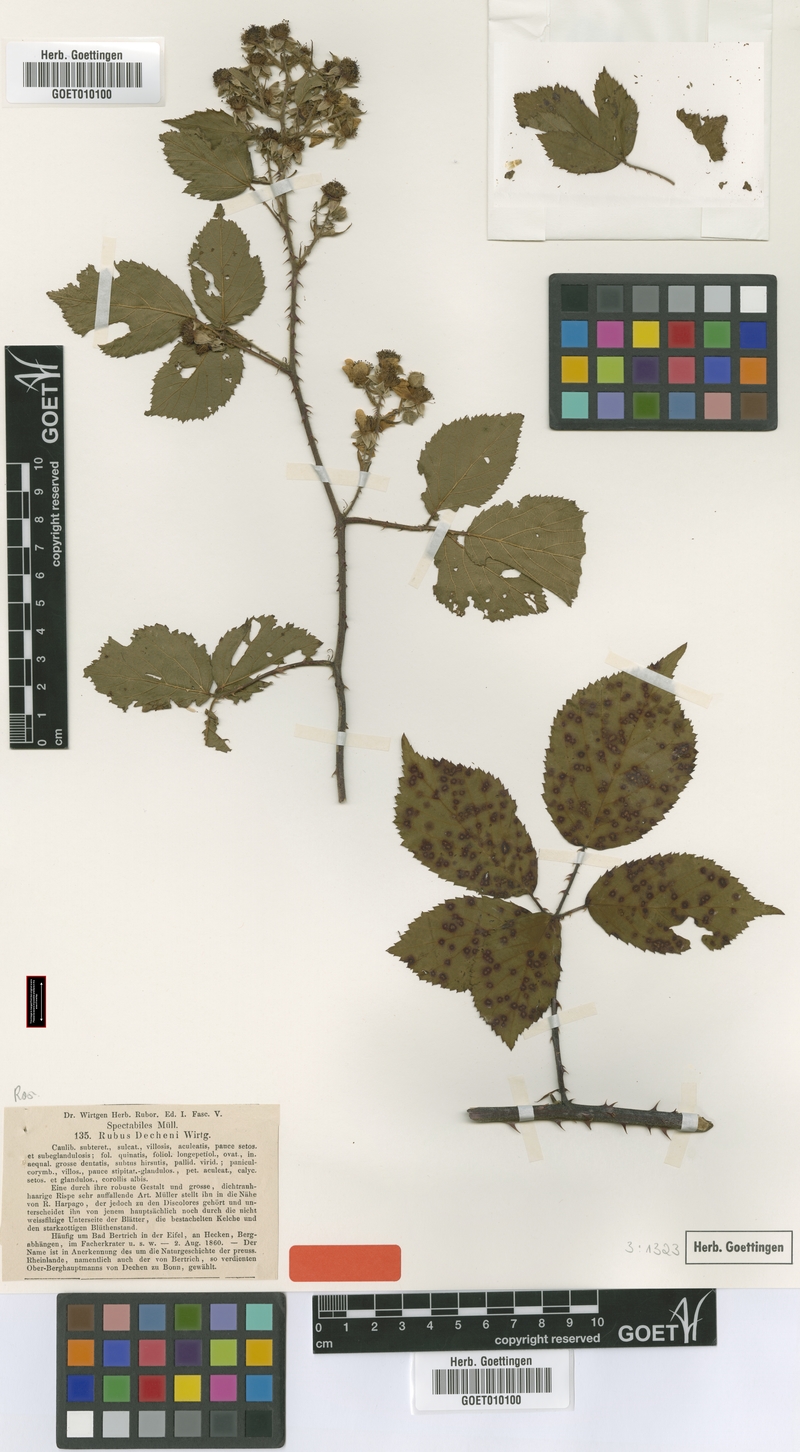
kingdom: Plantae
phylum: Tracheophyta
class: Magnoliopsida
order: Rosales
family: Rosaceae
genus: Rubus
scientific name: Rubus dechenii
